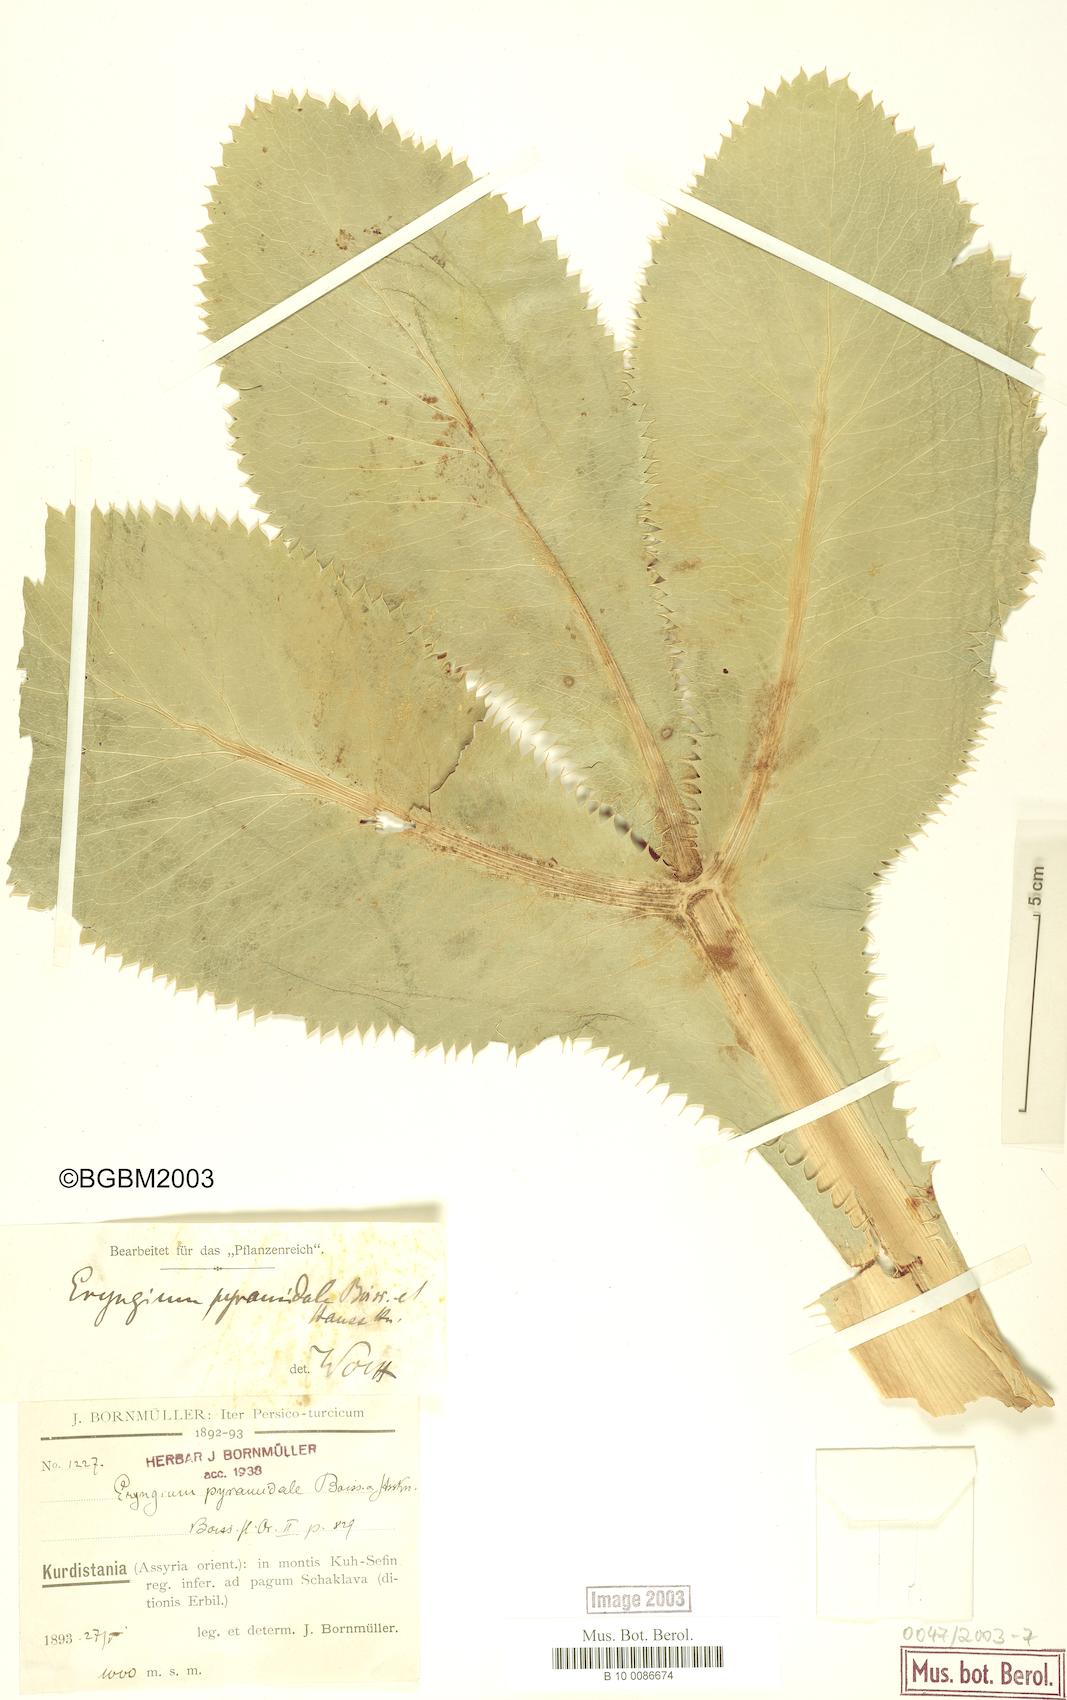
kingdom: Plantae
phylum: Tracheophyta
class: Magnoliopsida
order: Apiales
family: Apiaceae
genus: Eryngium
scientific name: Eryngium pyramidale
